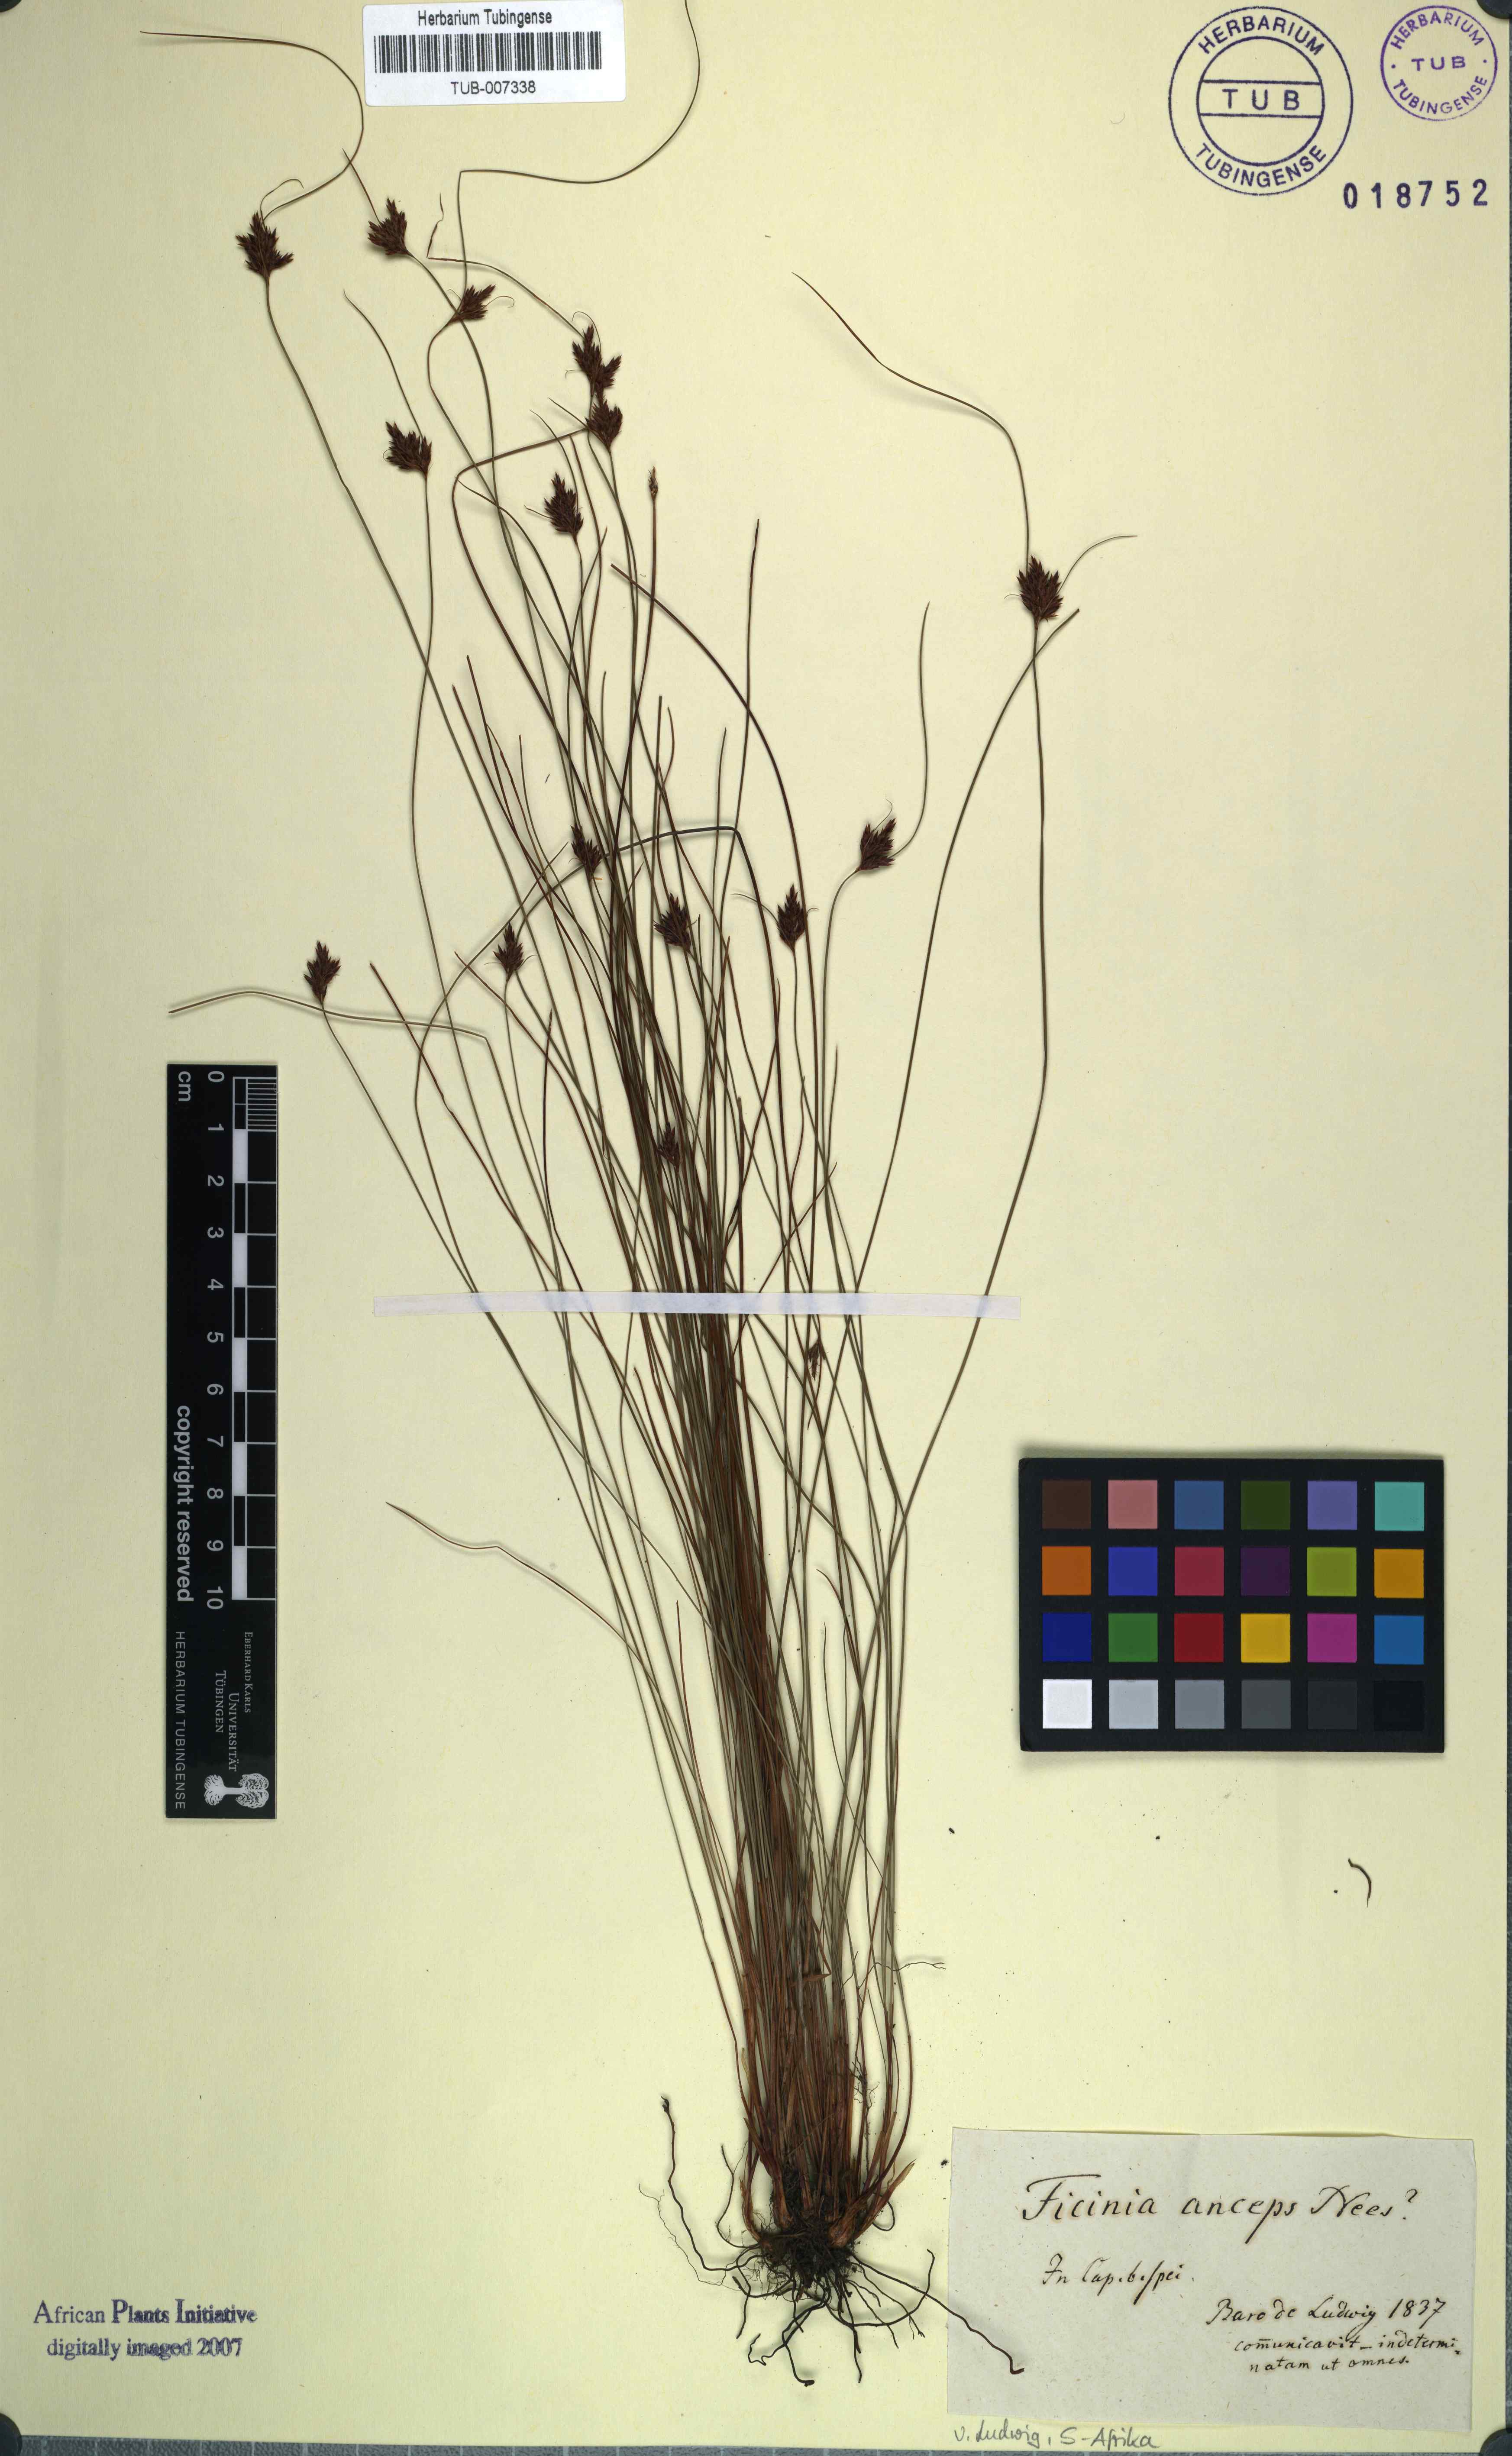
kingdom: Plantae
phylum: Tracheophyta
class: Liliopsida
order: Poales
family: Cyperaceae
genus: Ficinia
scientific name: Ficinia anceps
